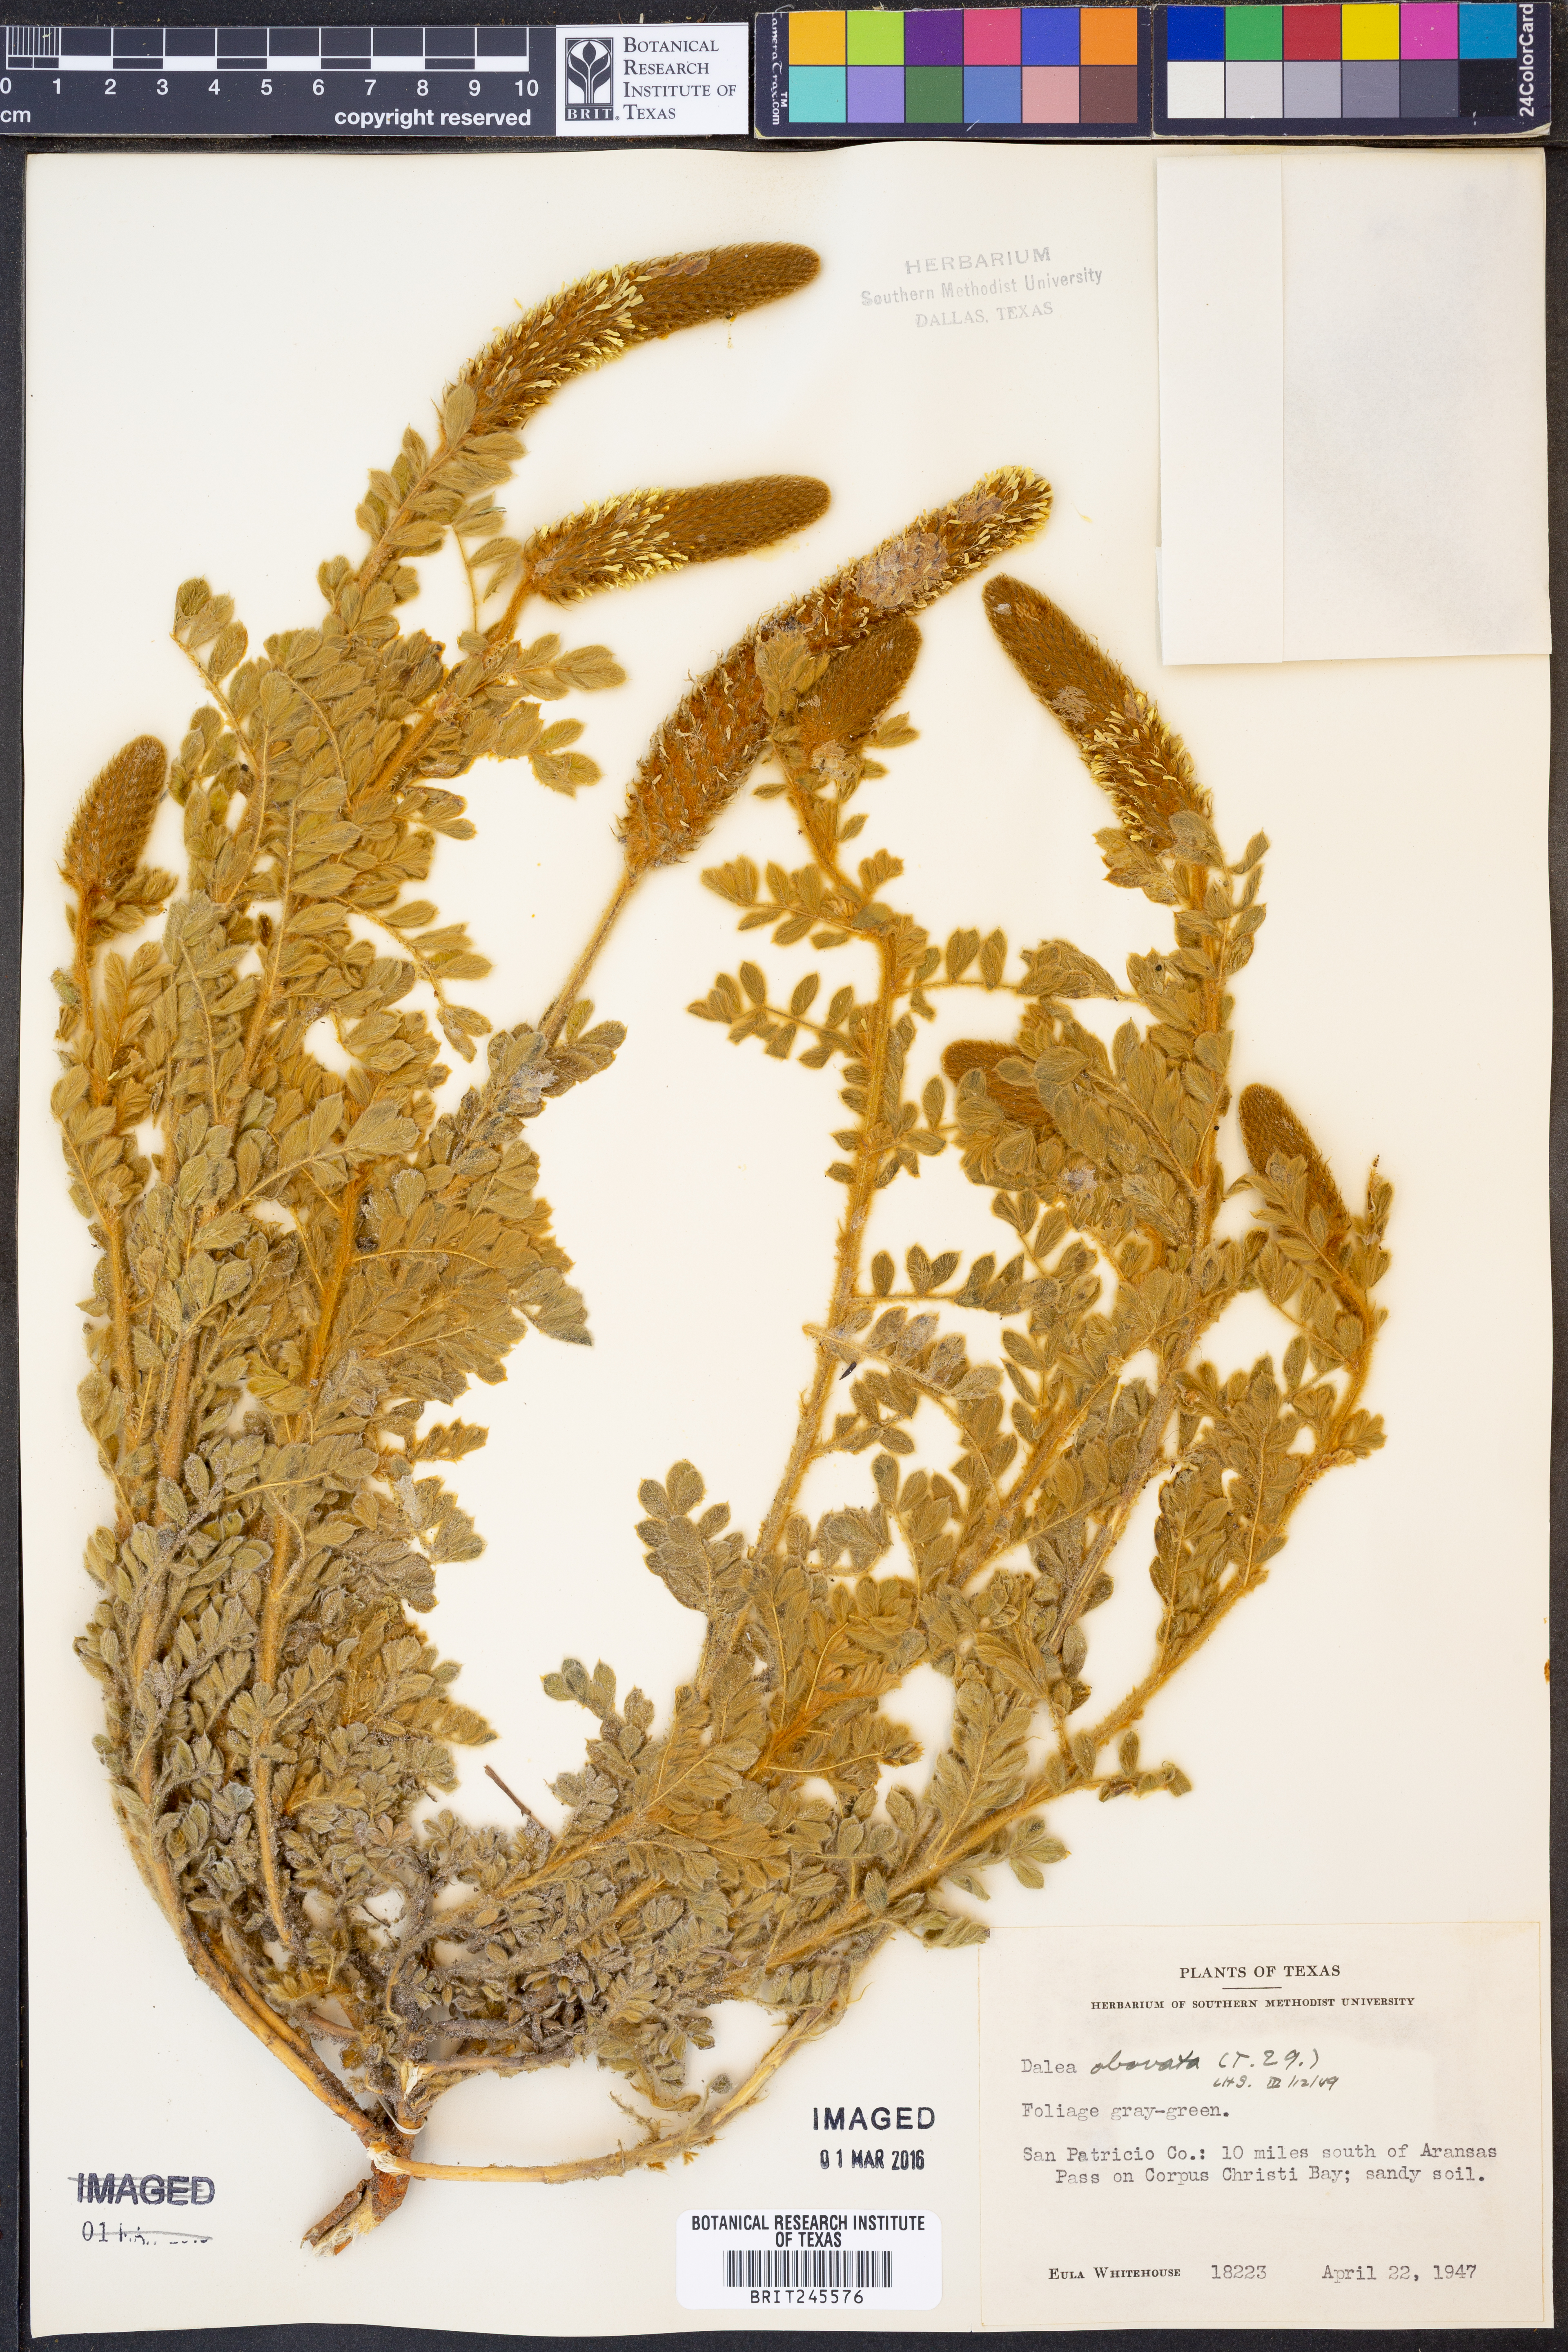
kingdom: Plantae
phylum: Tracheophyta
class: Magnoliopsida
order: Fabales
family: Fabaceae
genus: Dalea
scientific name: Dalea obovata
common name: Pussyfoot
